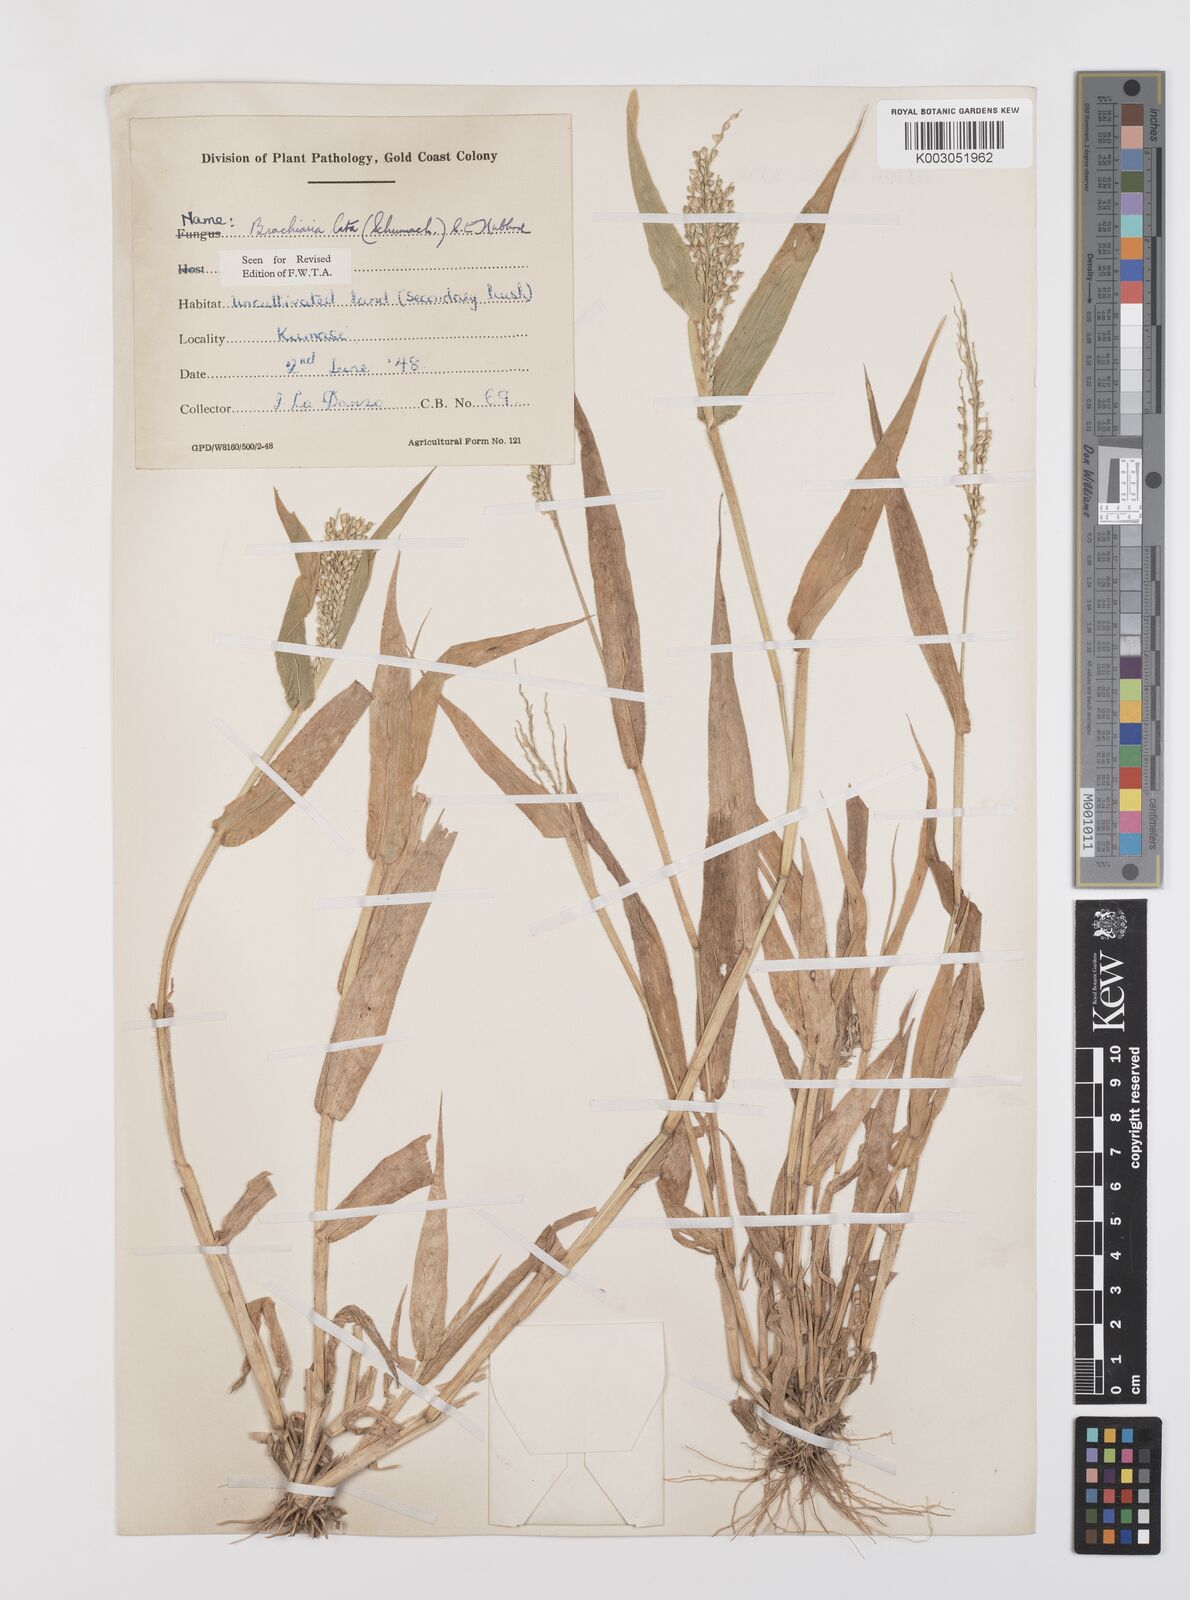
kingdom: Plantae
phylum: Tracheophyta
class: Liliopsida
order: Poales
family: Poaceae
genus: Urochloa
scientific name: Urochloa lata
